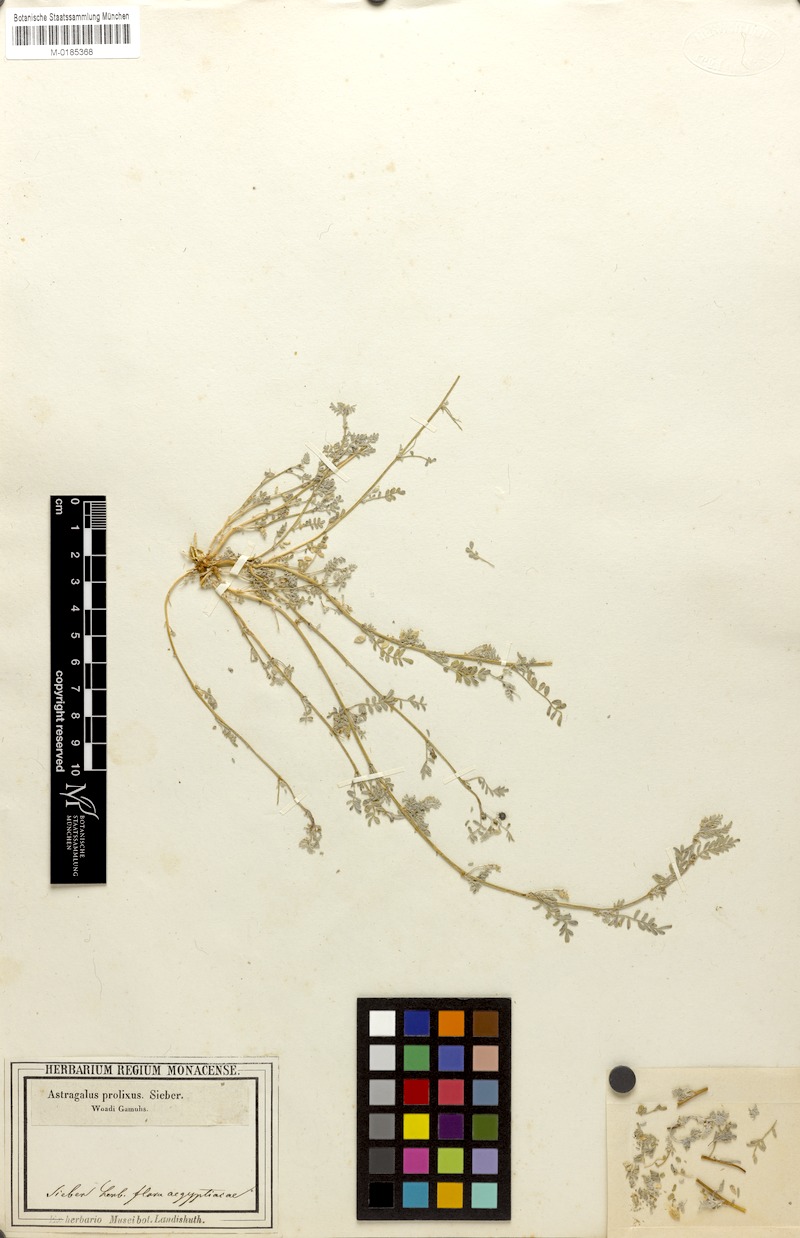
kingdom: Plantae
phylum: Tracheophyta
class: Magnoliopsida
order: Fabales
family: Fabaceae
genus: Astragalus
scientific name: Astragalus vogelii
